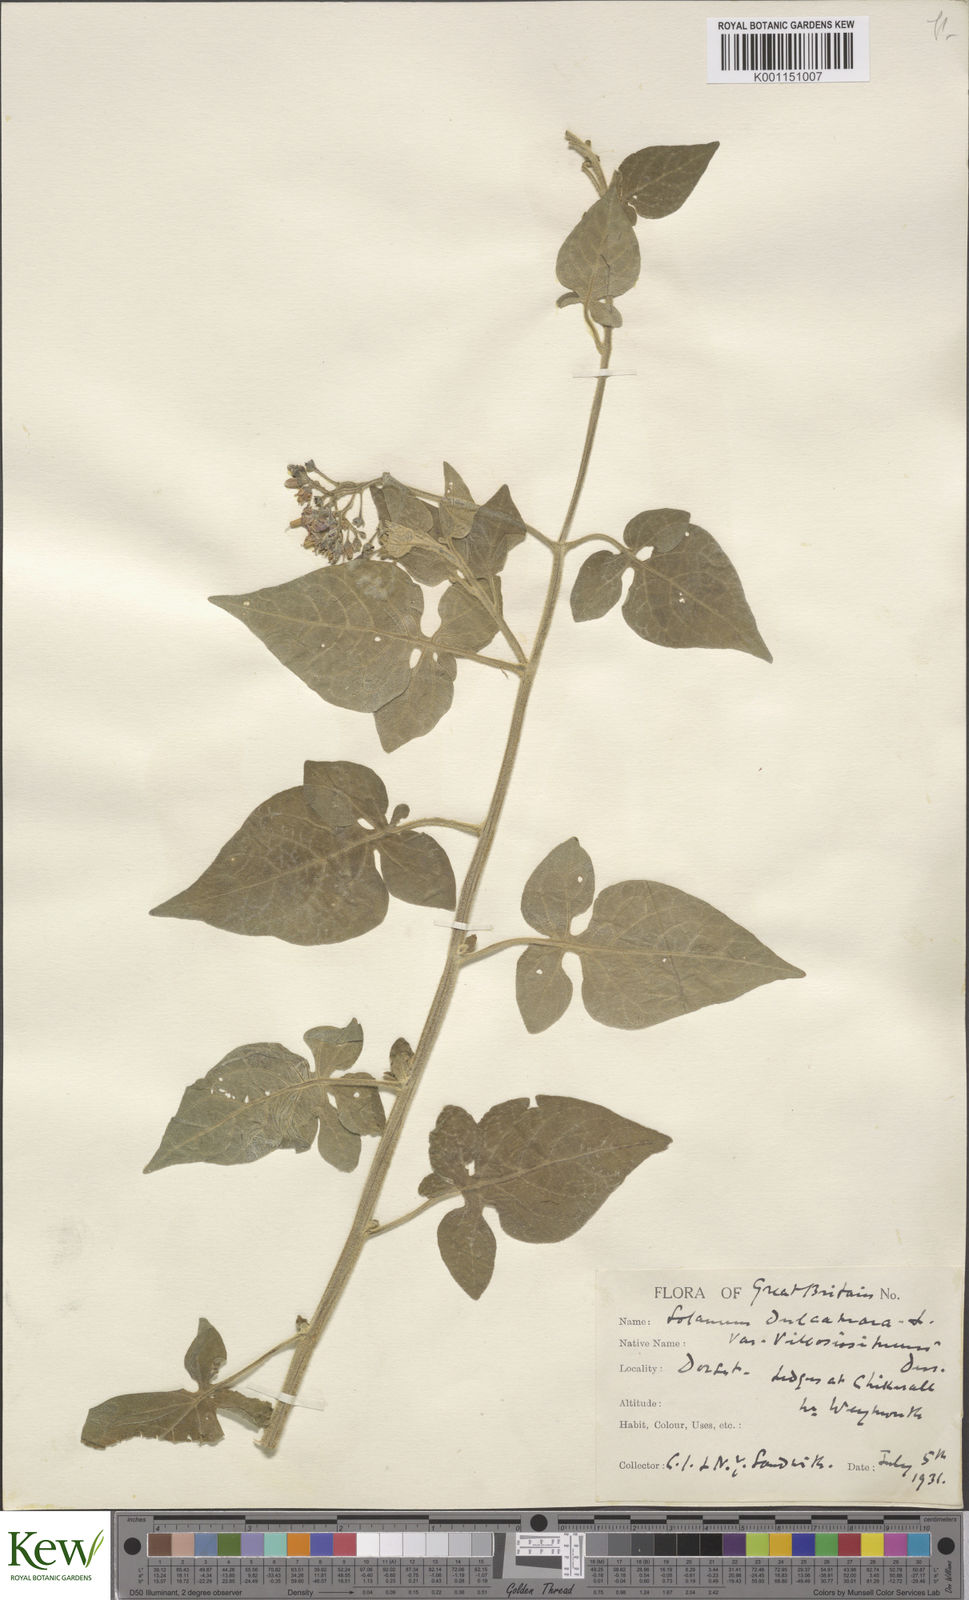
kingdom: Plantae
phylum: Tracheophyta
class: Magnoliopsida
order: Solanales
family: Solanaceae
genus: Solanum
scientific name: Solanum dulcamara
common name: Climbing nightshade
